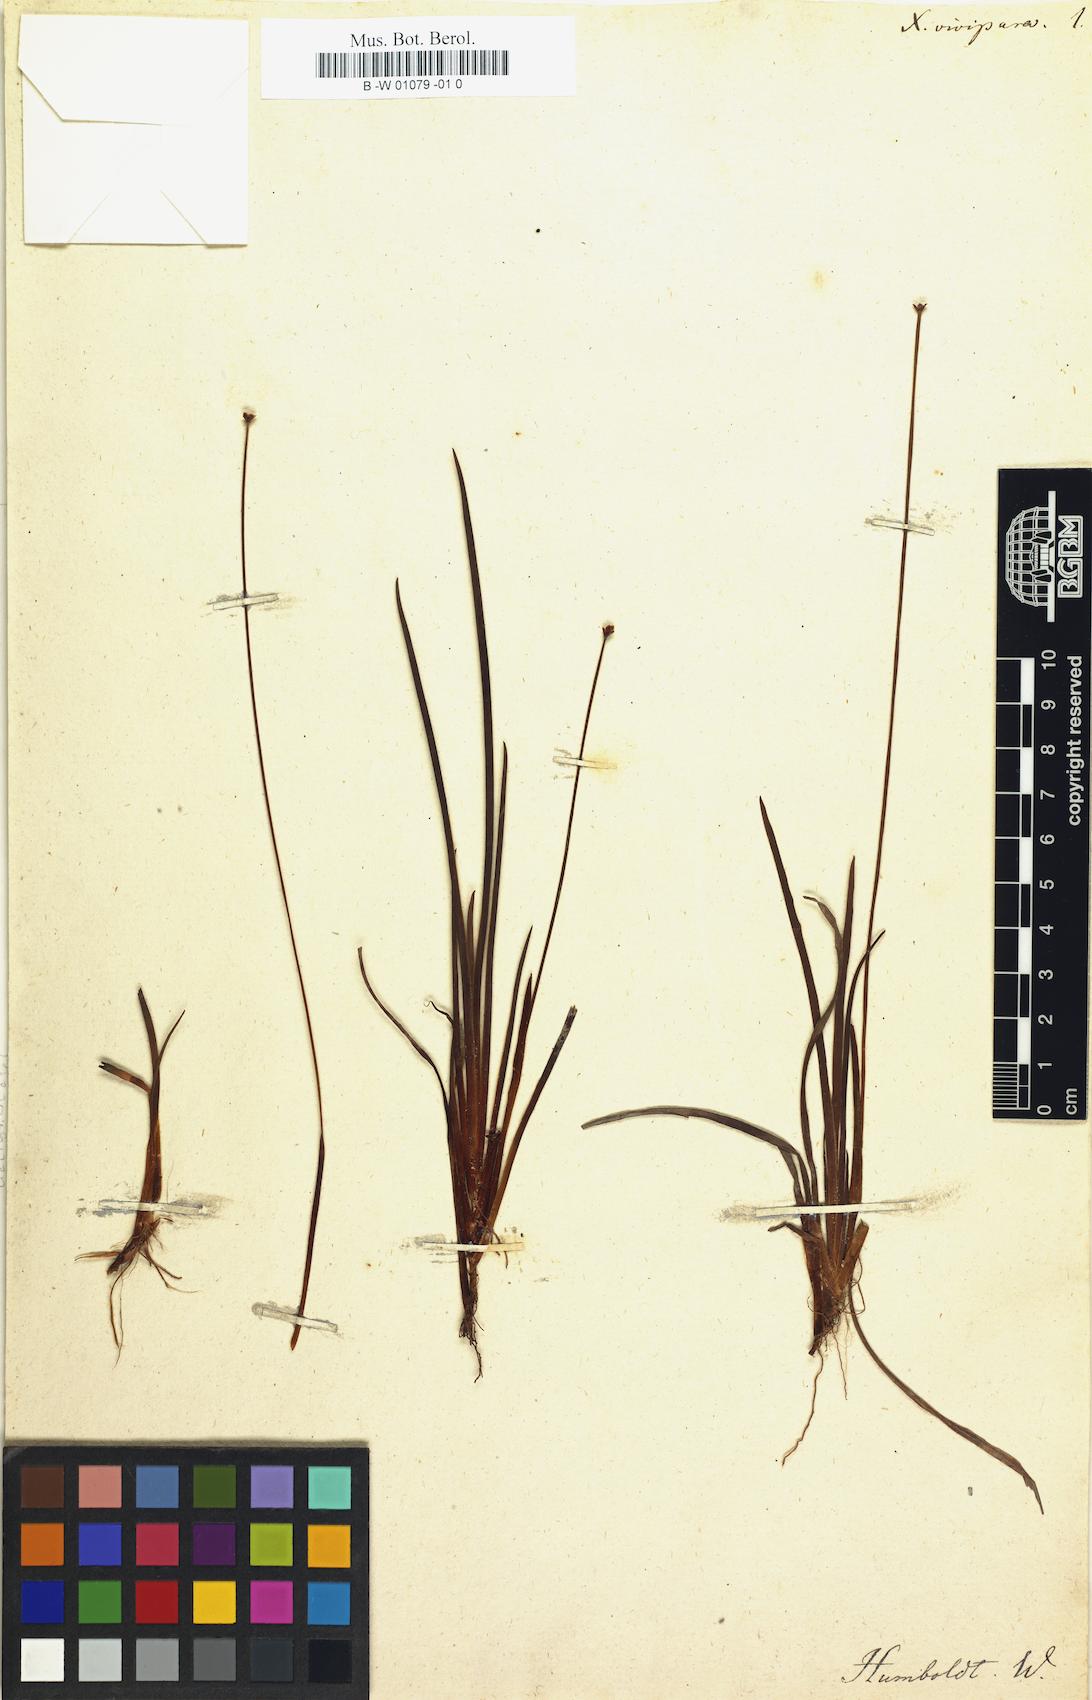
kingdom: Plantae
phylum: Tracheophyta
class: Liliopsida
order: Poales
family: Xyridaceae
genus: Xyris
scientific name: Xyris vivipara
